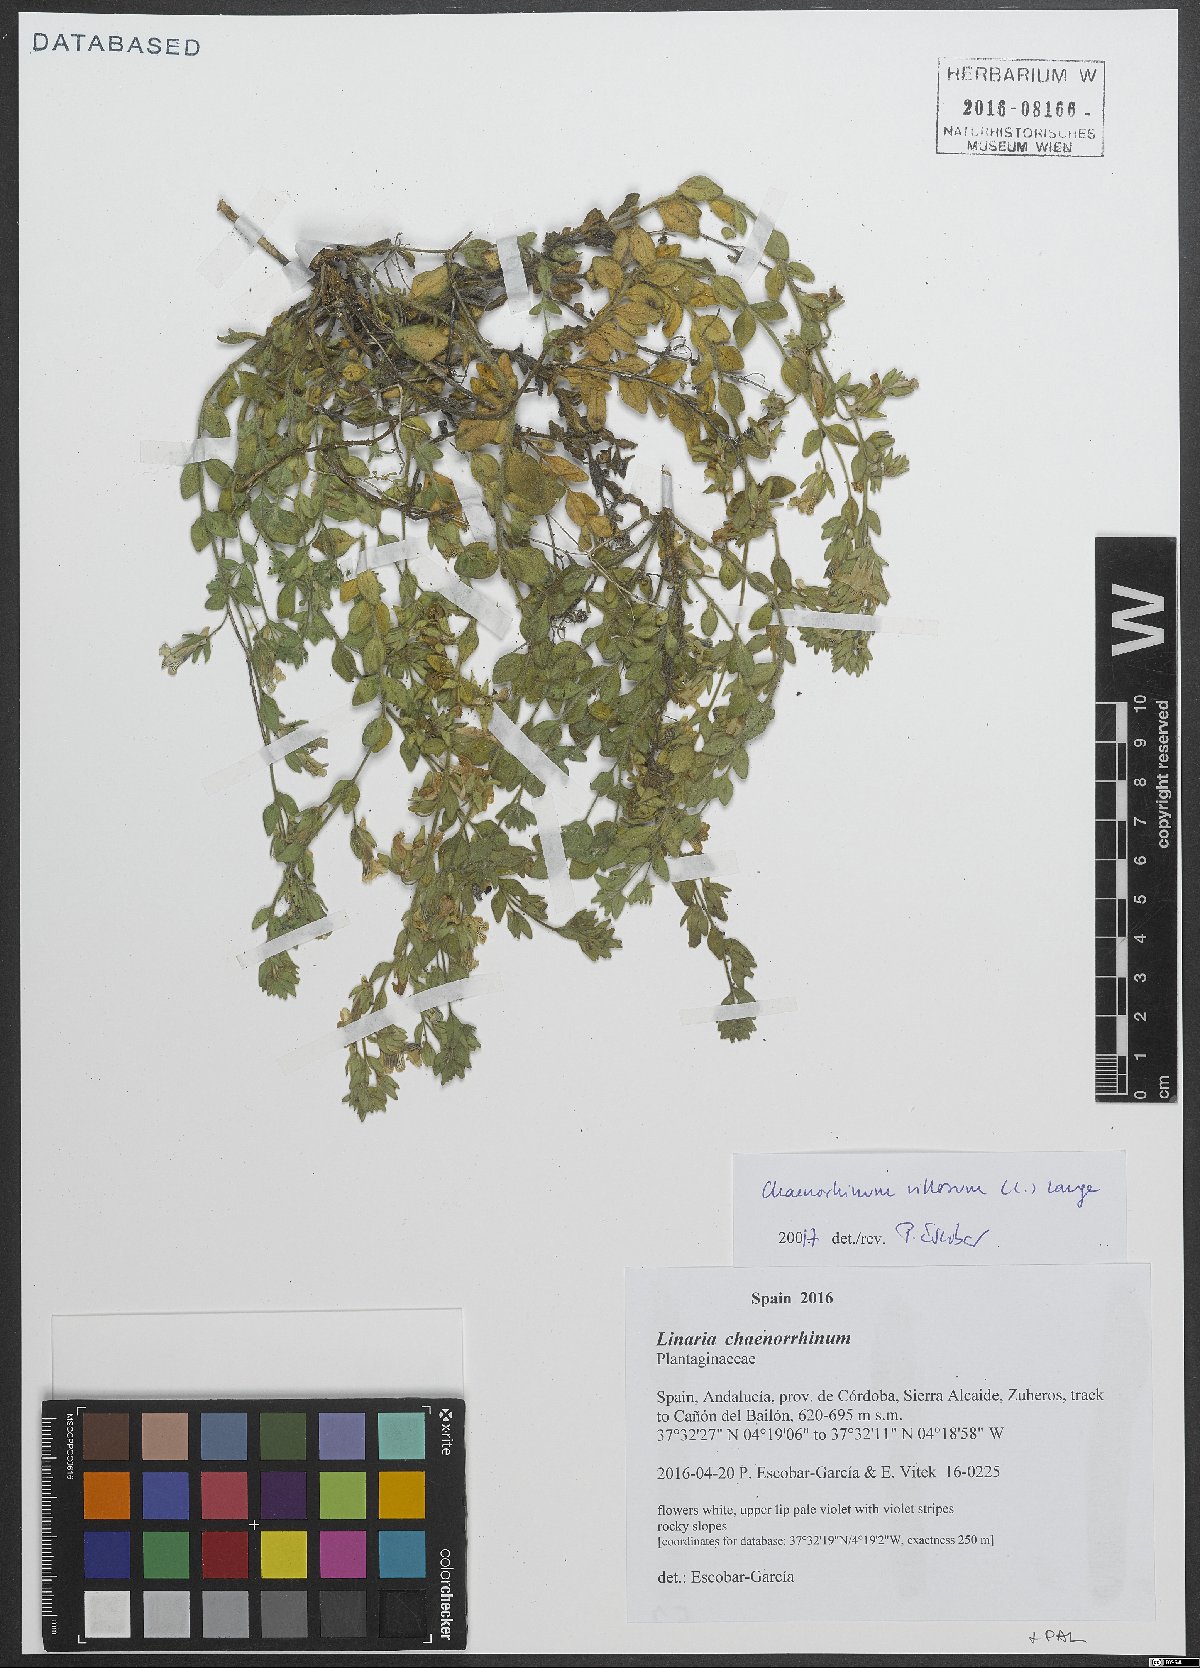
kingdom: Plantae
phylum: Tracheophyta
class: Magnoliopsida
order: Lamiales
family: Plantaginaceae
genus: Chaenorhinum
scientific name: Chaenorhinum villosum
